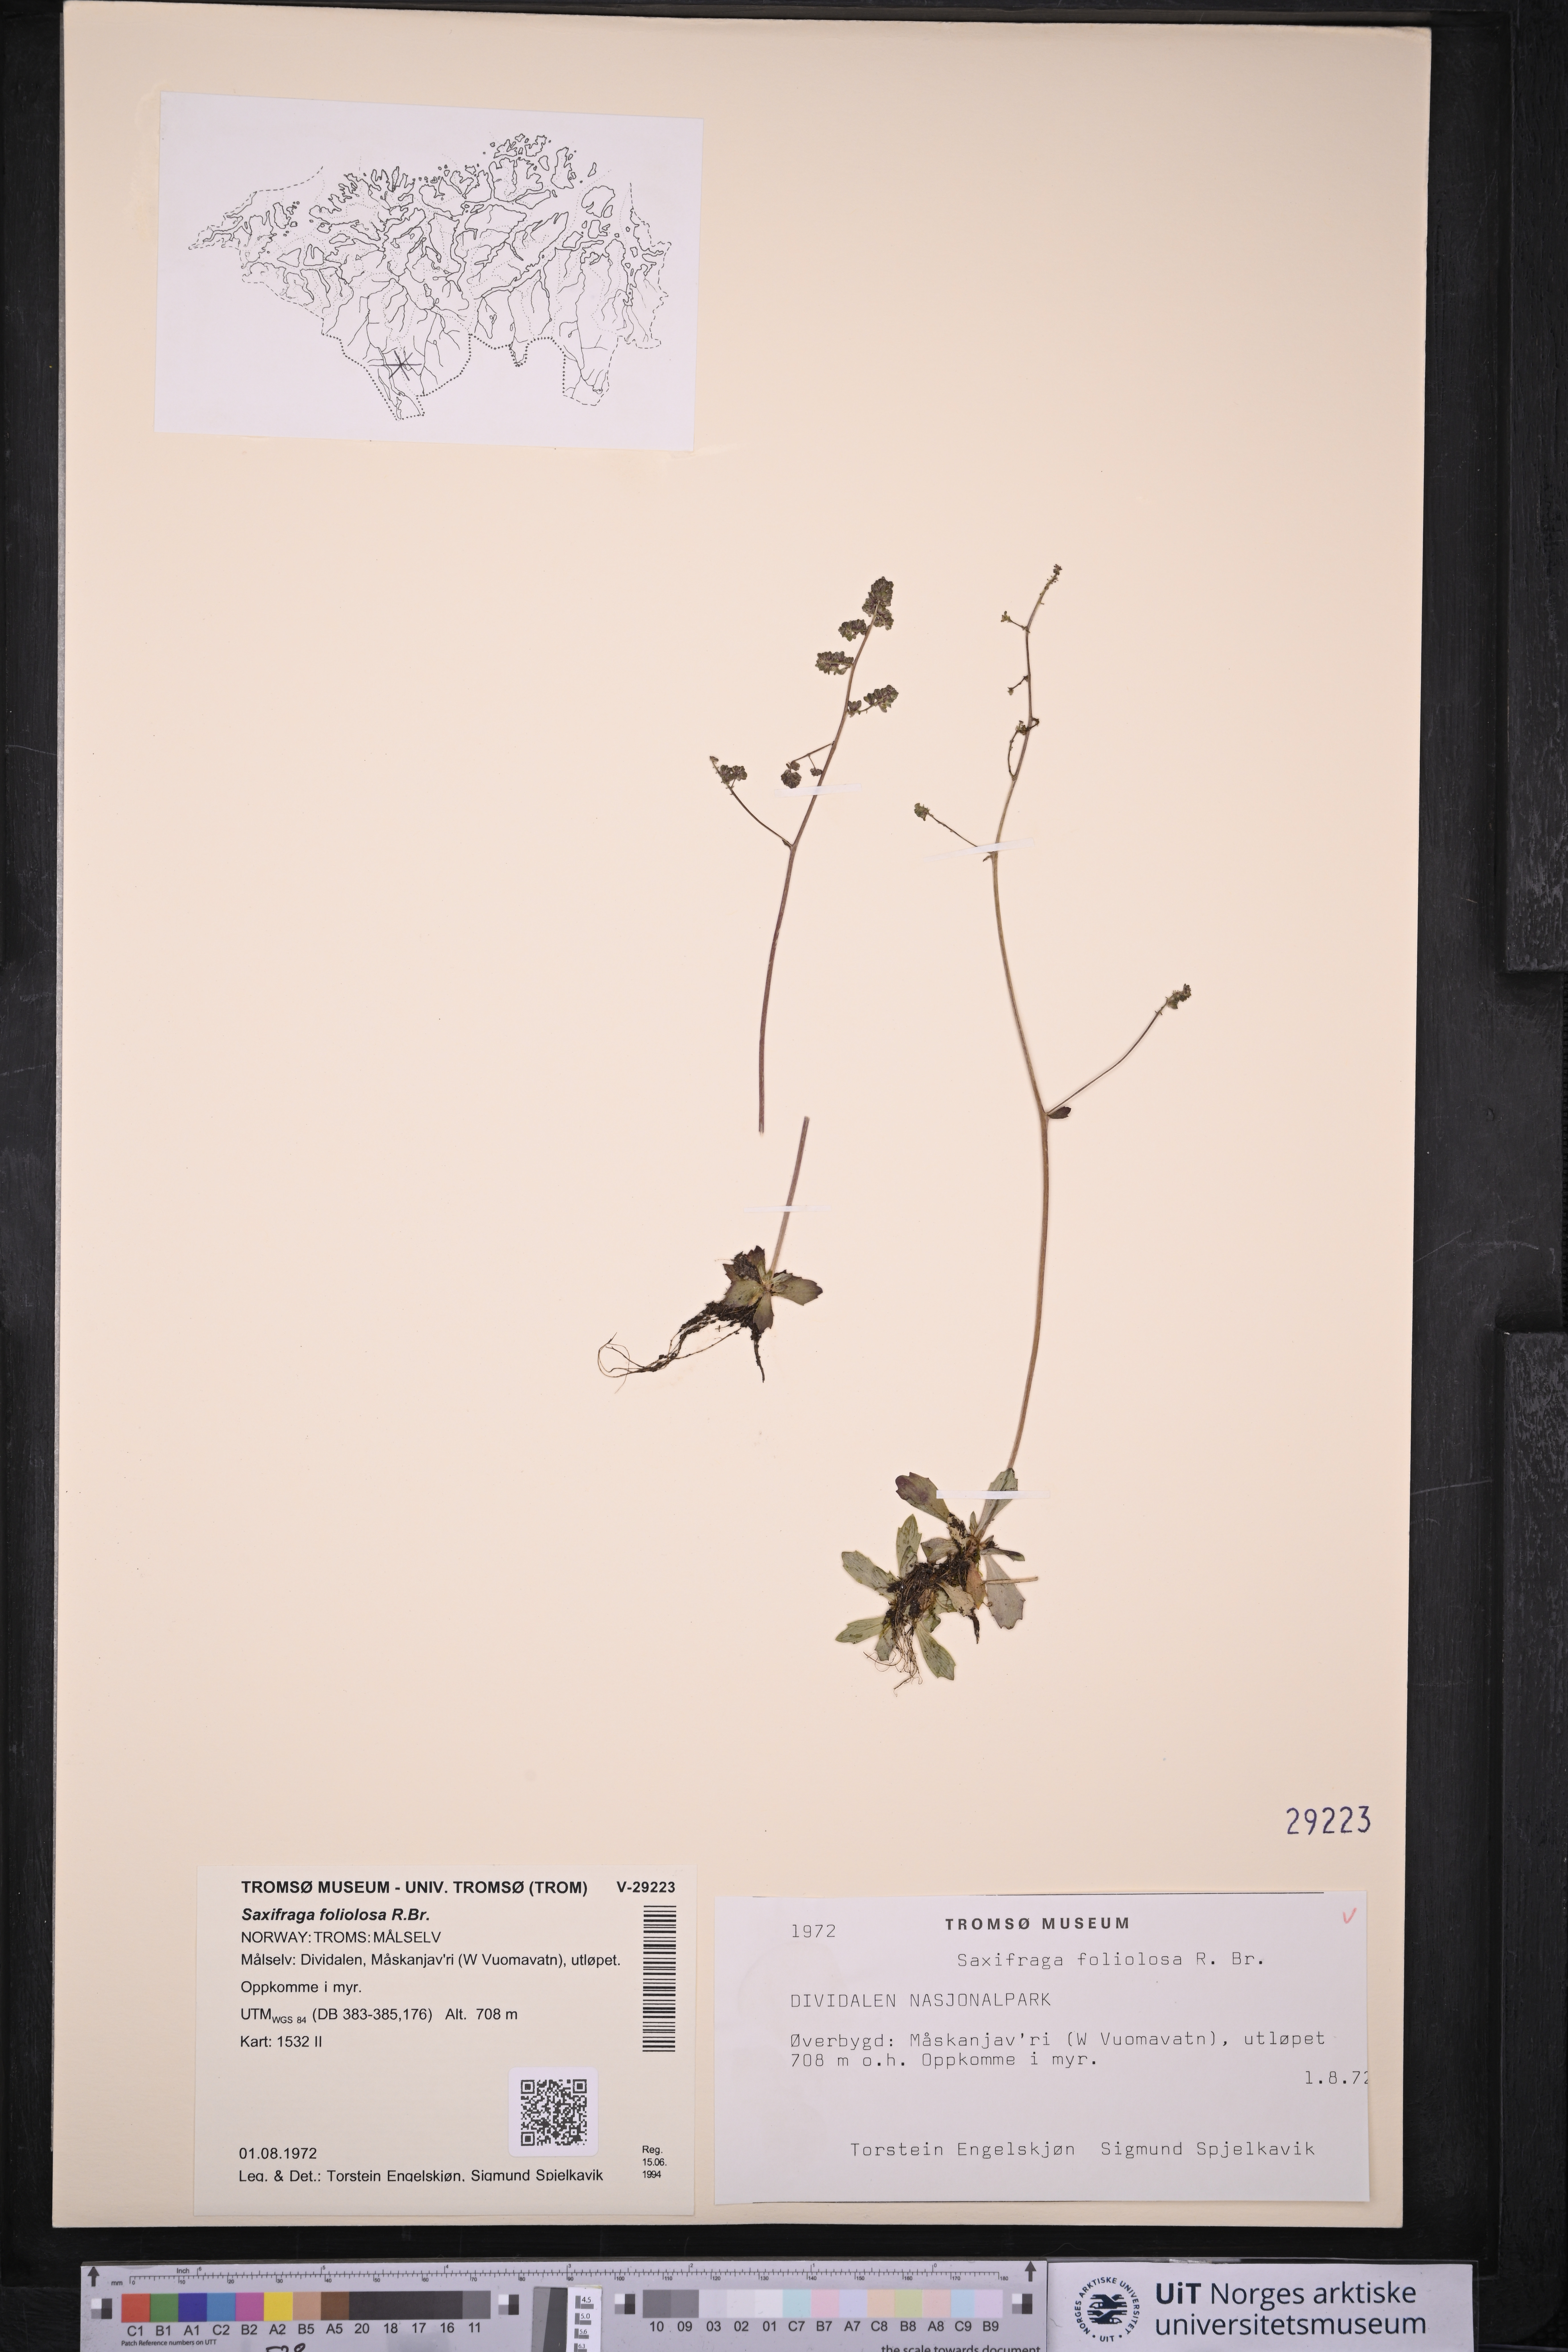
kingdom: Plantae
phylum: Tracheophyta
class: Magnoliopsida
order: Saxifragales
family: Saxifragaceae
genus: Micranthes
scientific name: Micranthes foliolosa
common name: Leafystem saxifrage
